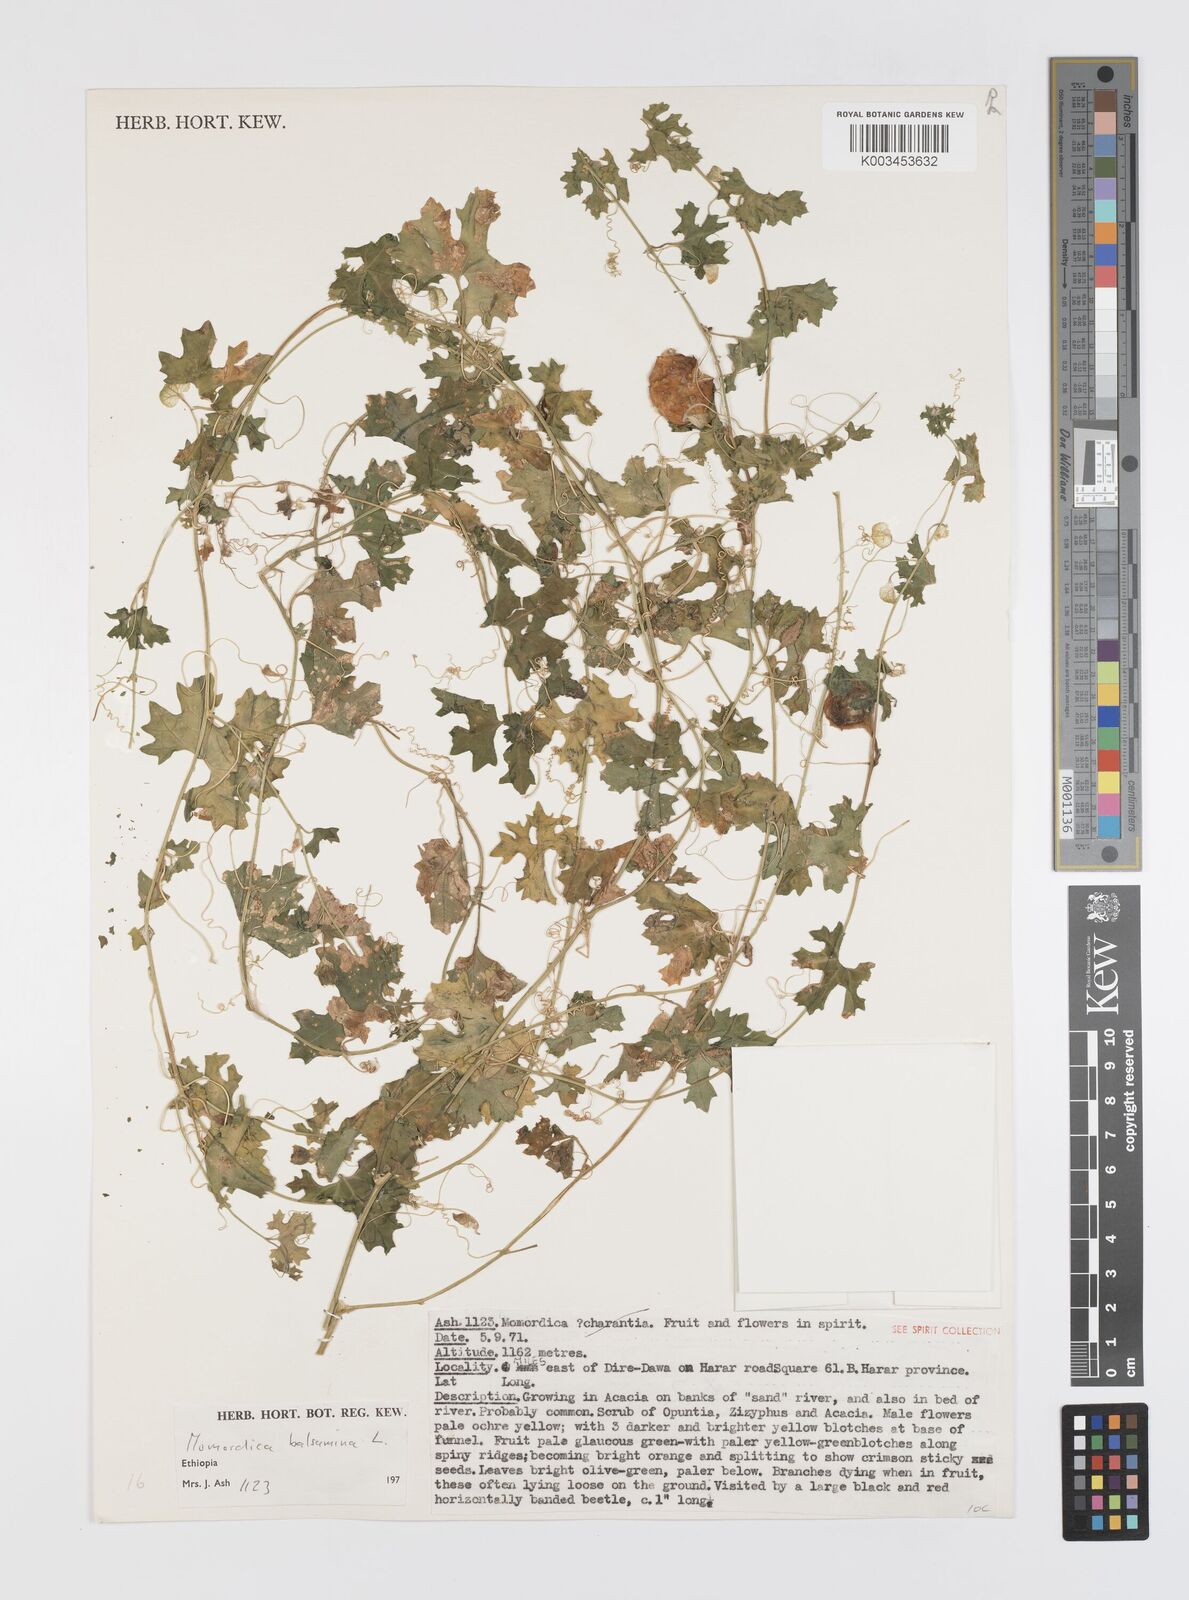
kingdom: Plantae
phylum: Tracheophyta
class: Magnoliopsida
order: Cucurbitales
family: Cucurbitaceae
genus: Momordica
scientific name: Momordica balsamina
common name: Southern balsampear
